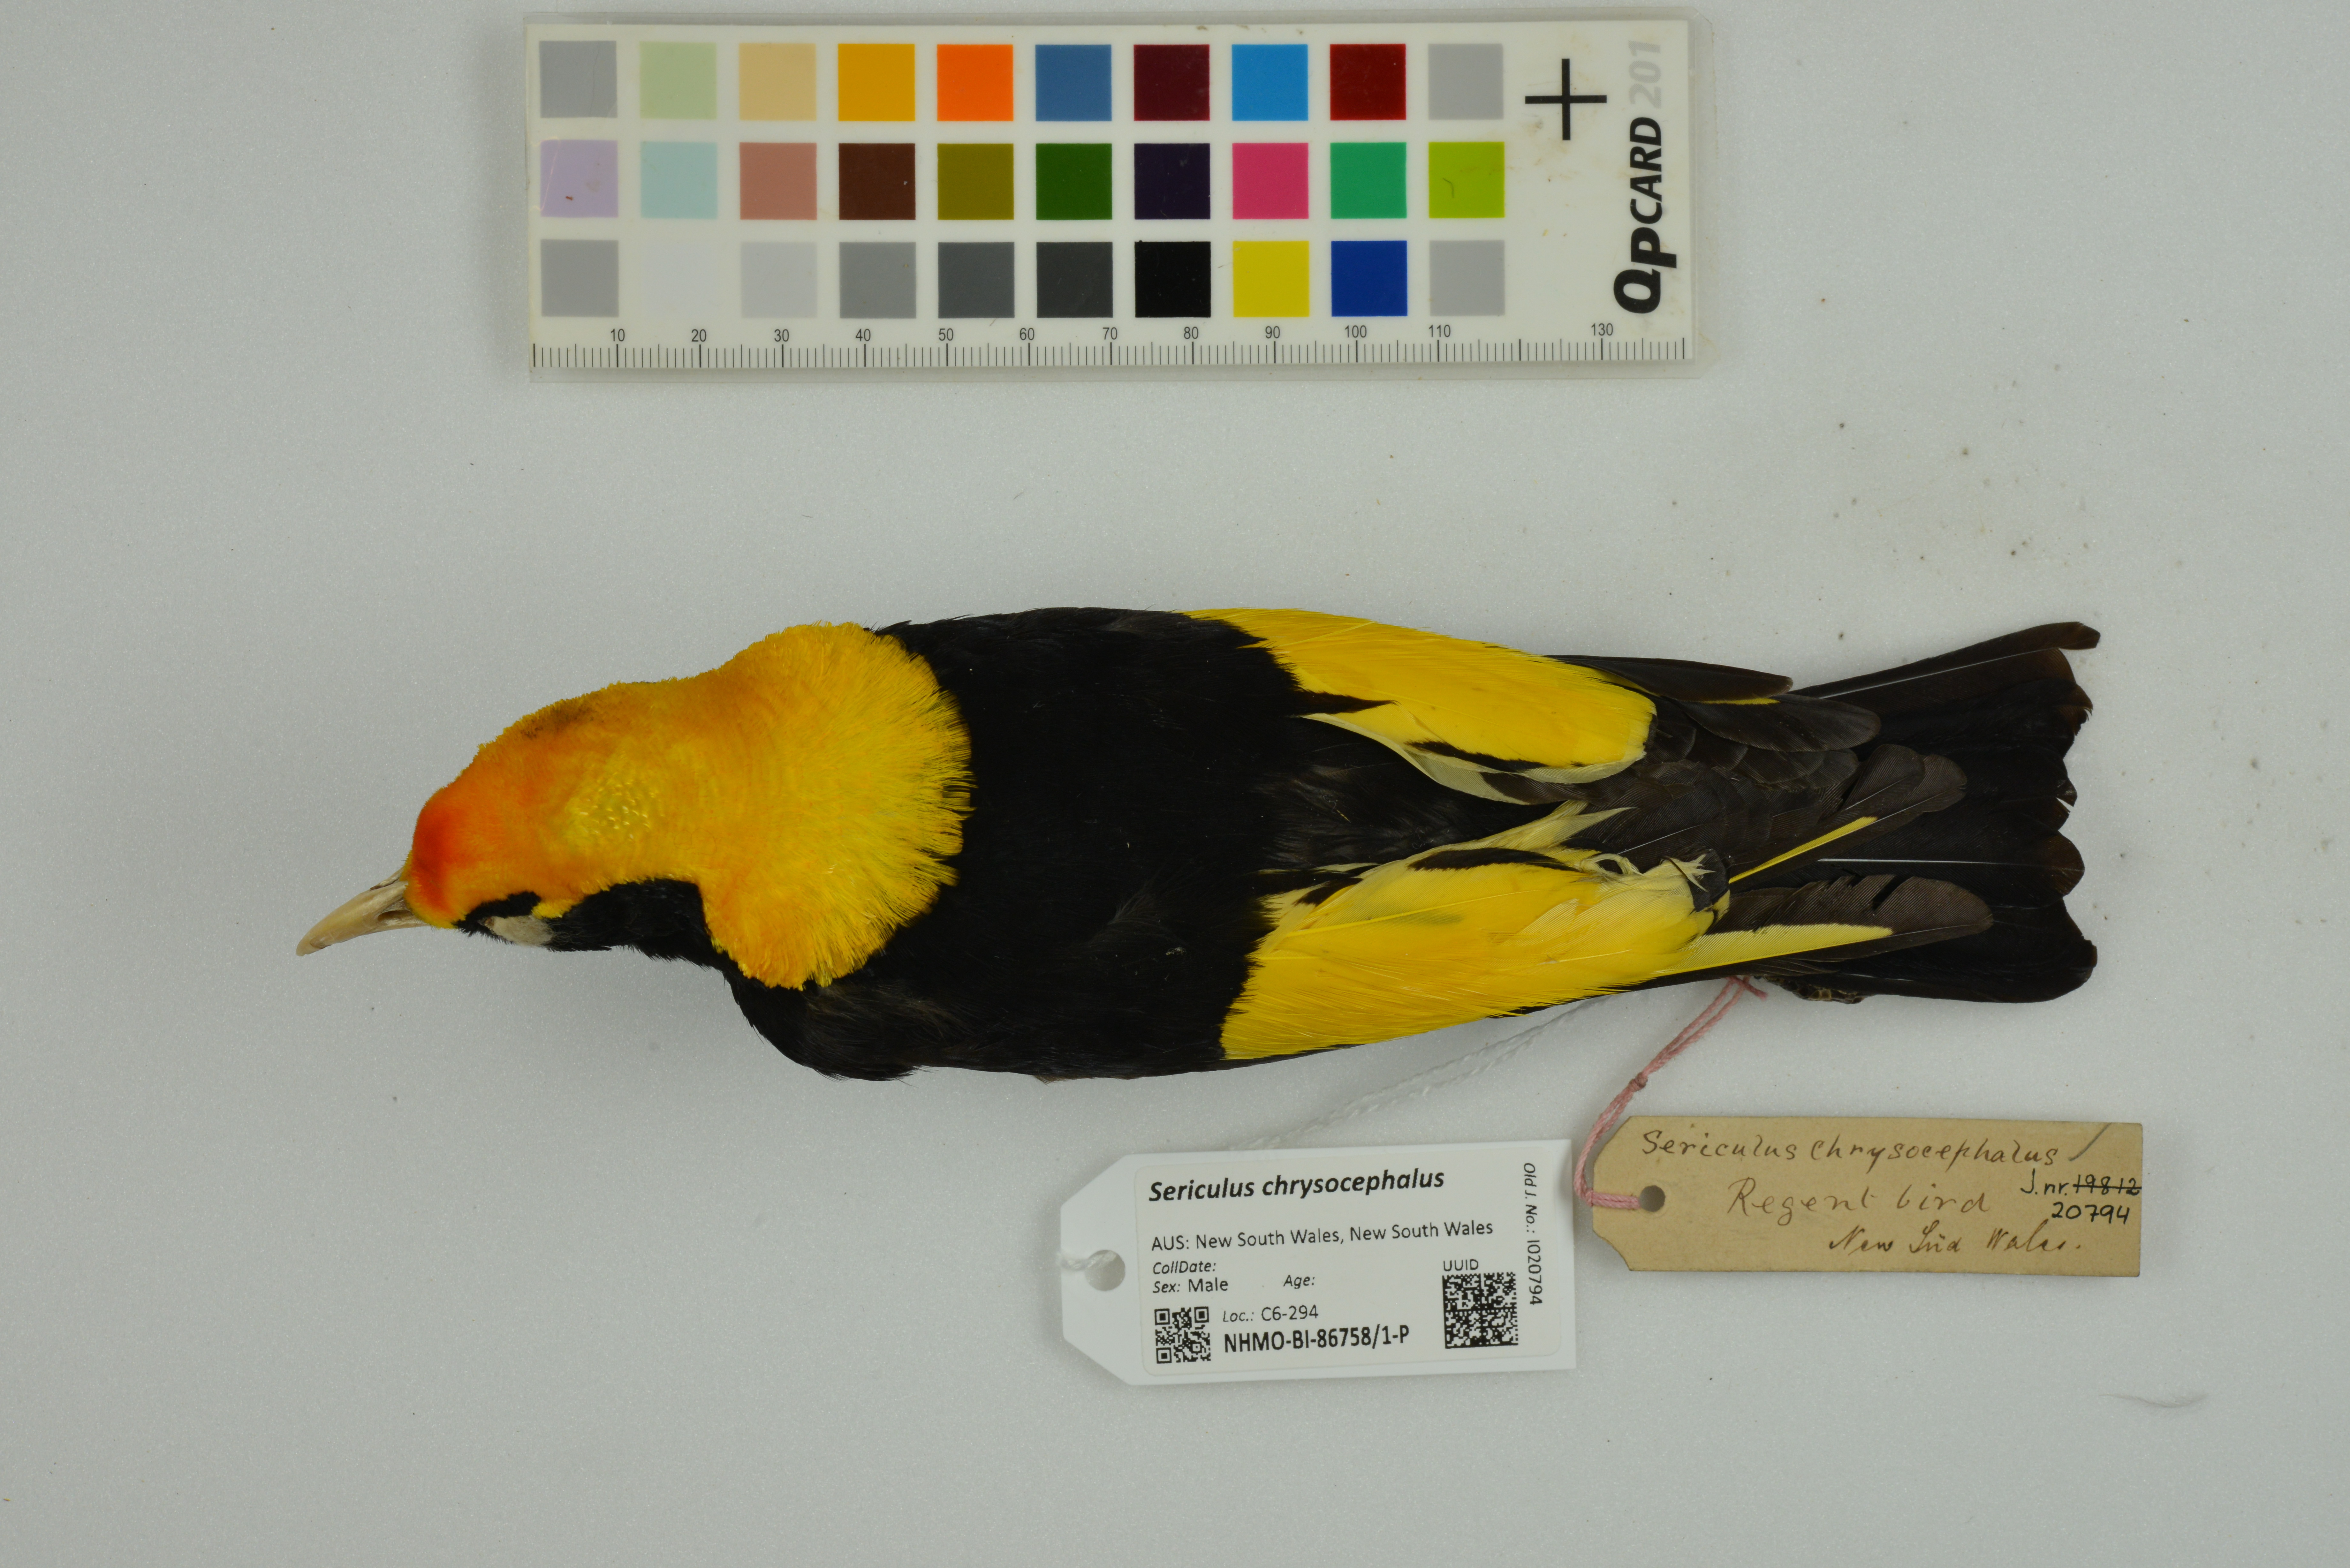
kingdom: Animalia
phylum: Chordata
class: Aves
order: Passeriformes
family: Ptilonorhynchidae
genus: Sericulus
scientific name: Sericulus chrysocephalus
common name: Regent bowerbird
